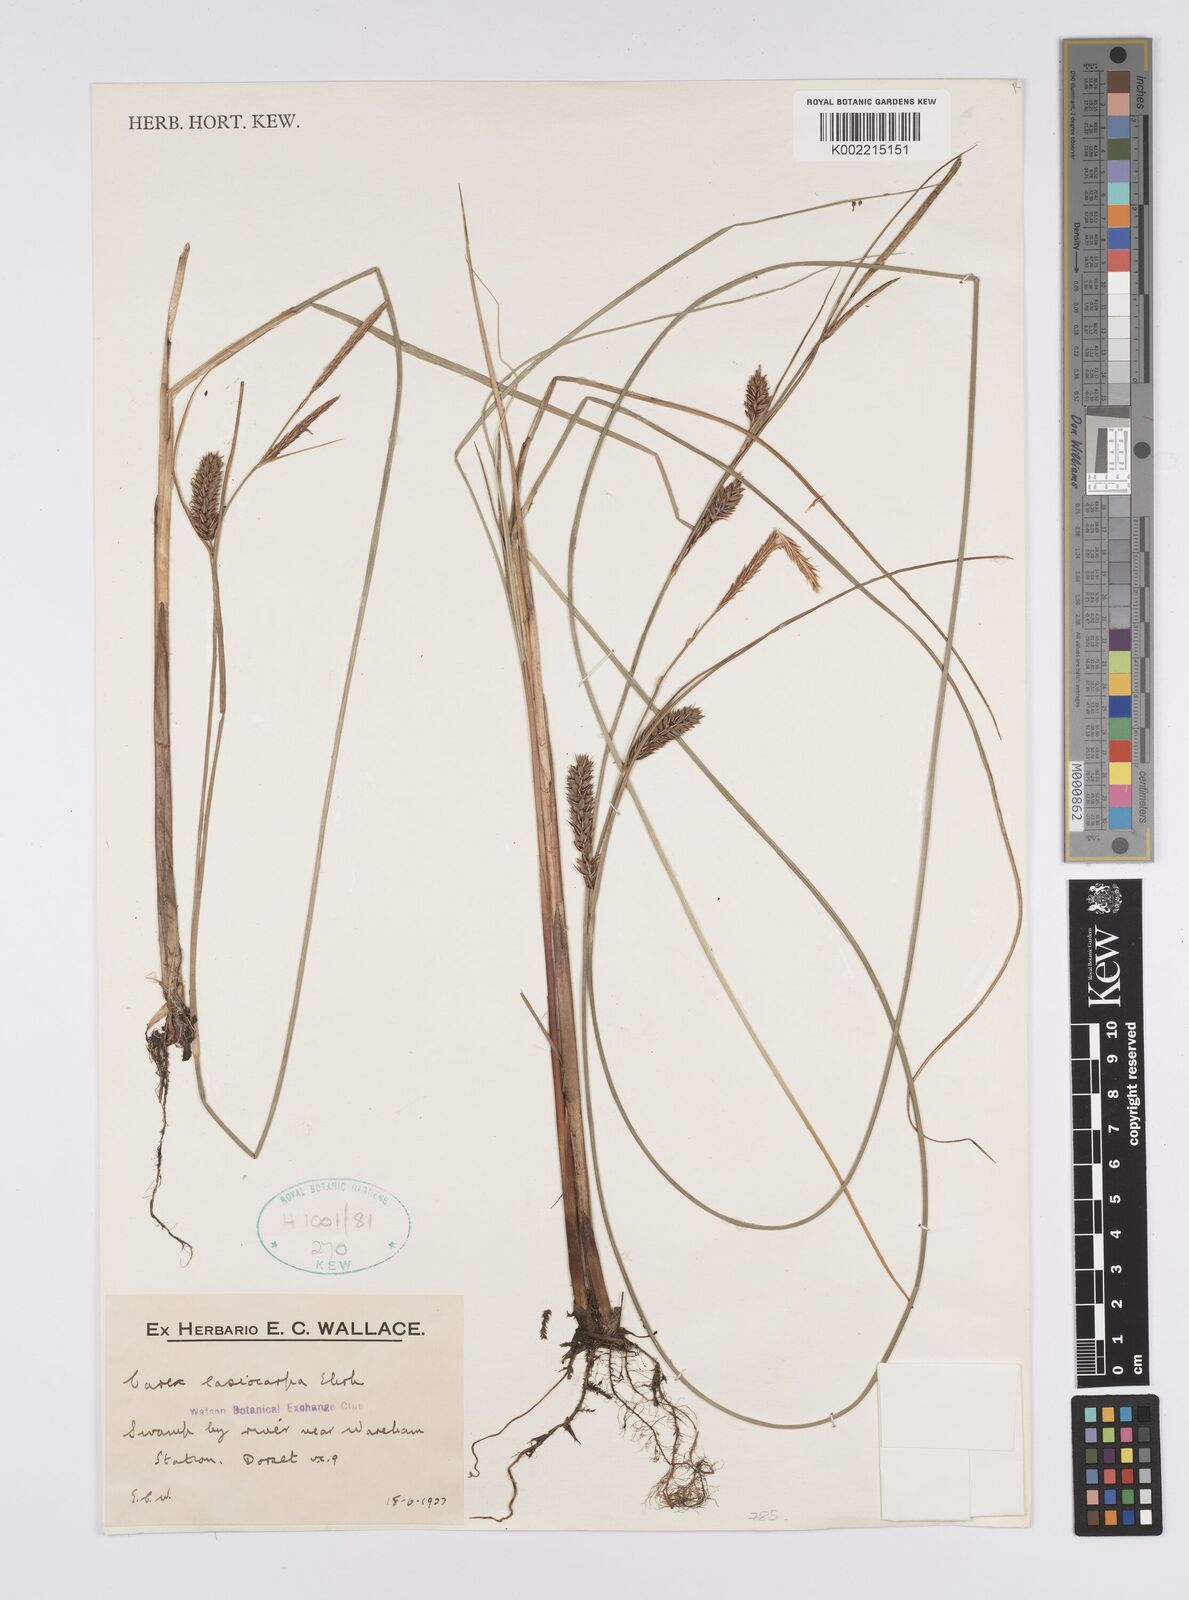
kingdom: Plantae
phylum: Tracheophyta
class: Liliopsida
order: Poales
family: Cyperaceae
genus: Carex
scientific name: Carex lasiocarpa
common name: Slender sedge
